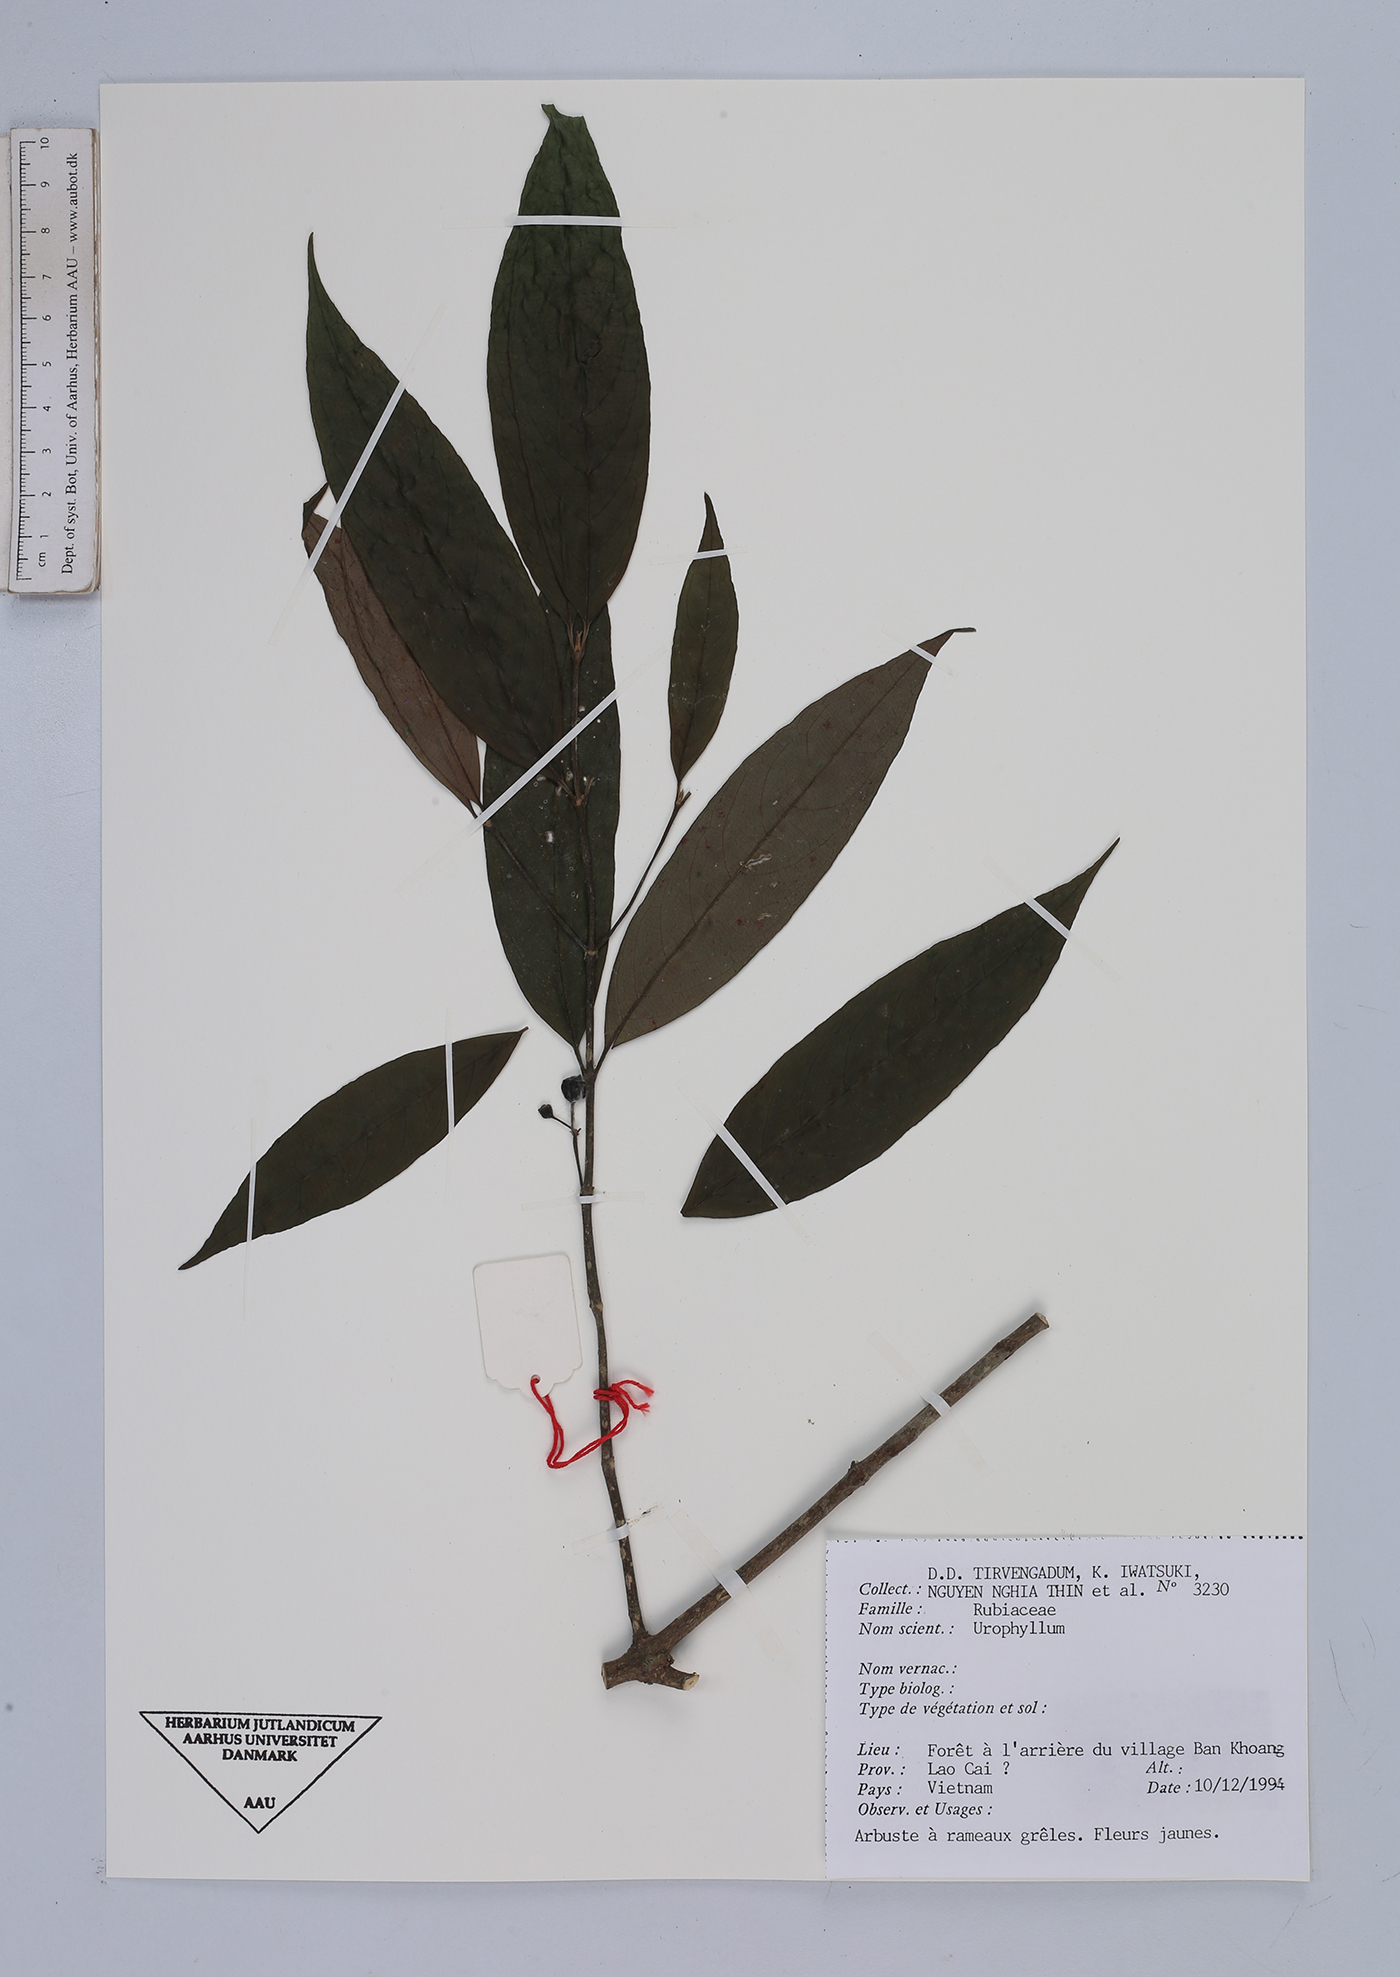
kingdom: Plantae
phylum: Tracheophyta
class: Magnoliopsida
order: Gentianales
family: Rubiaceae
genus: Urophyllum
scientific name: Urophyllum
